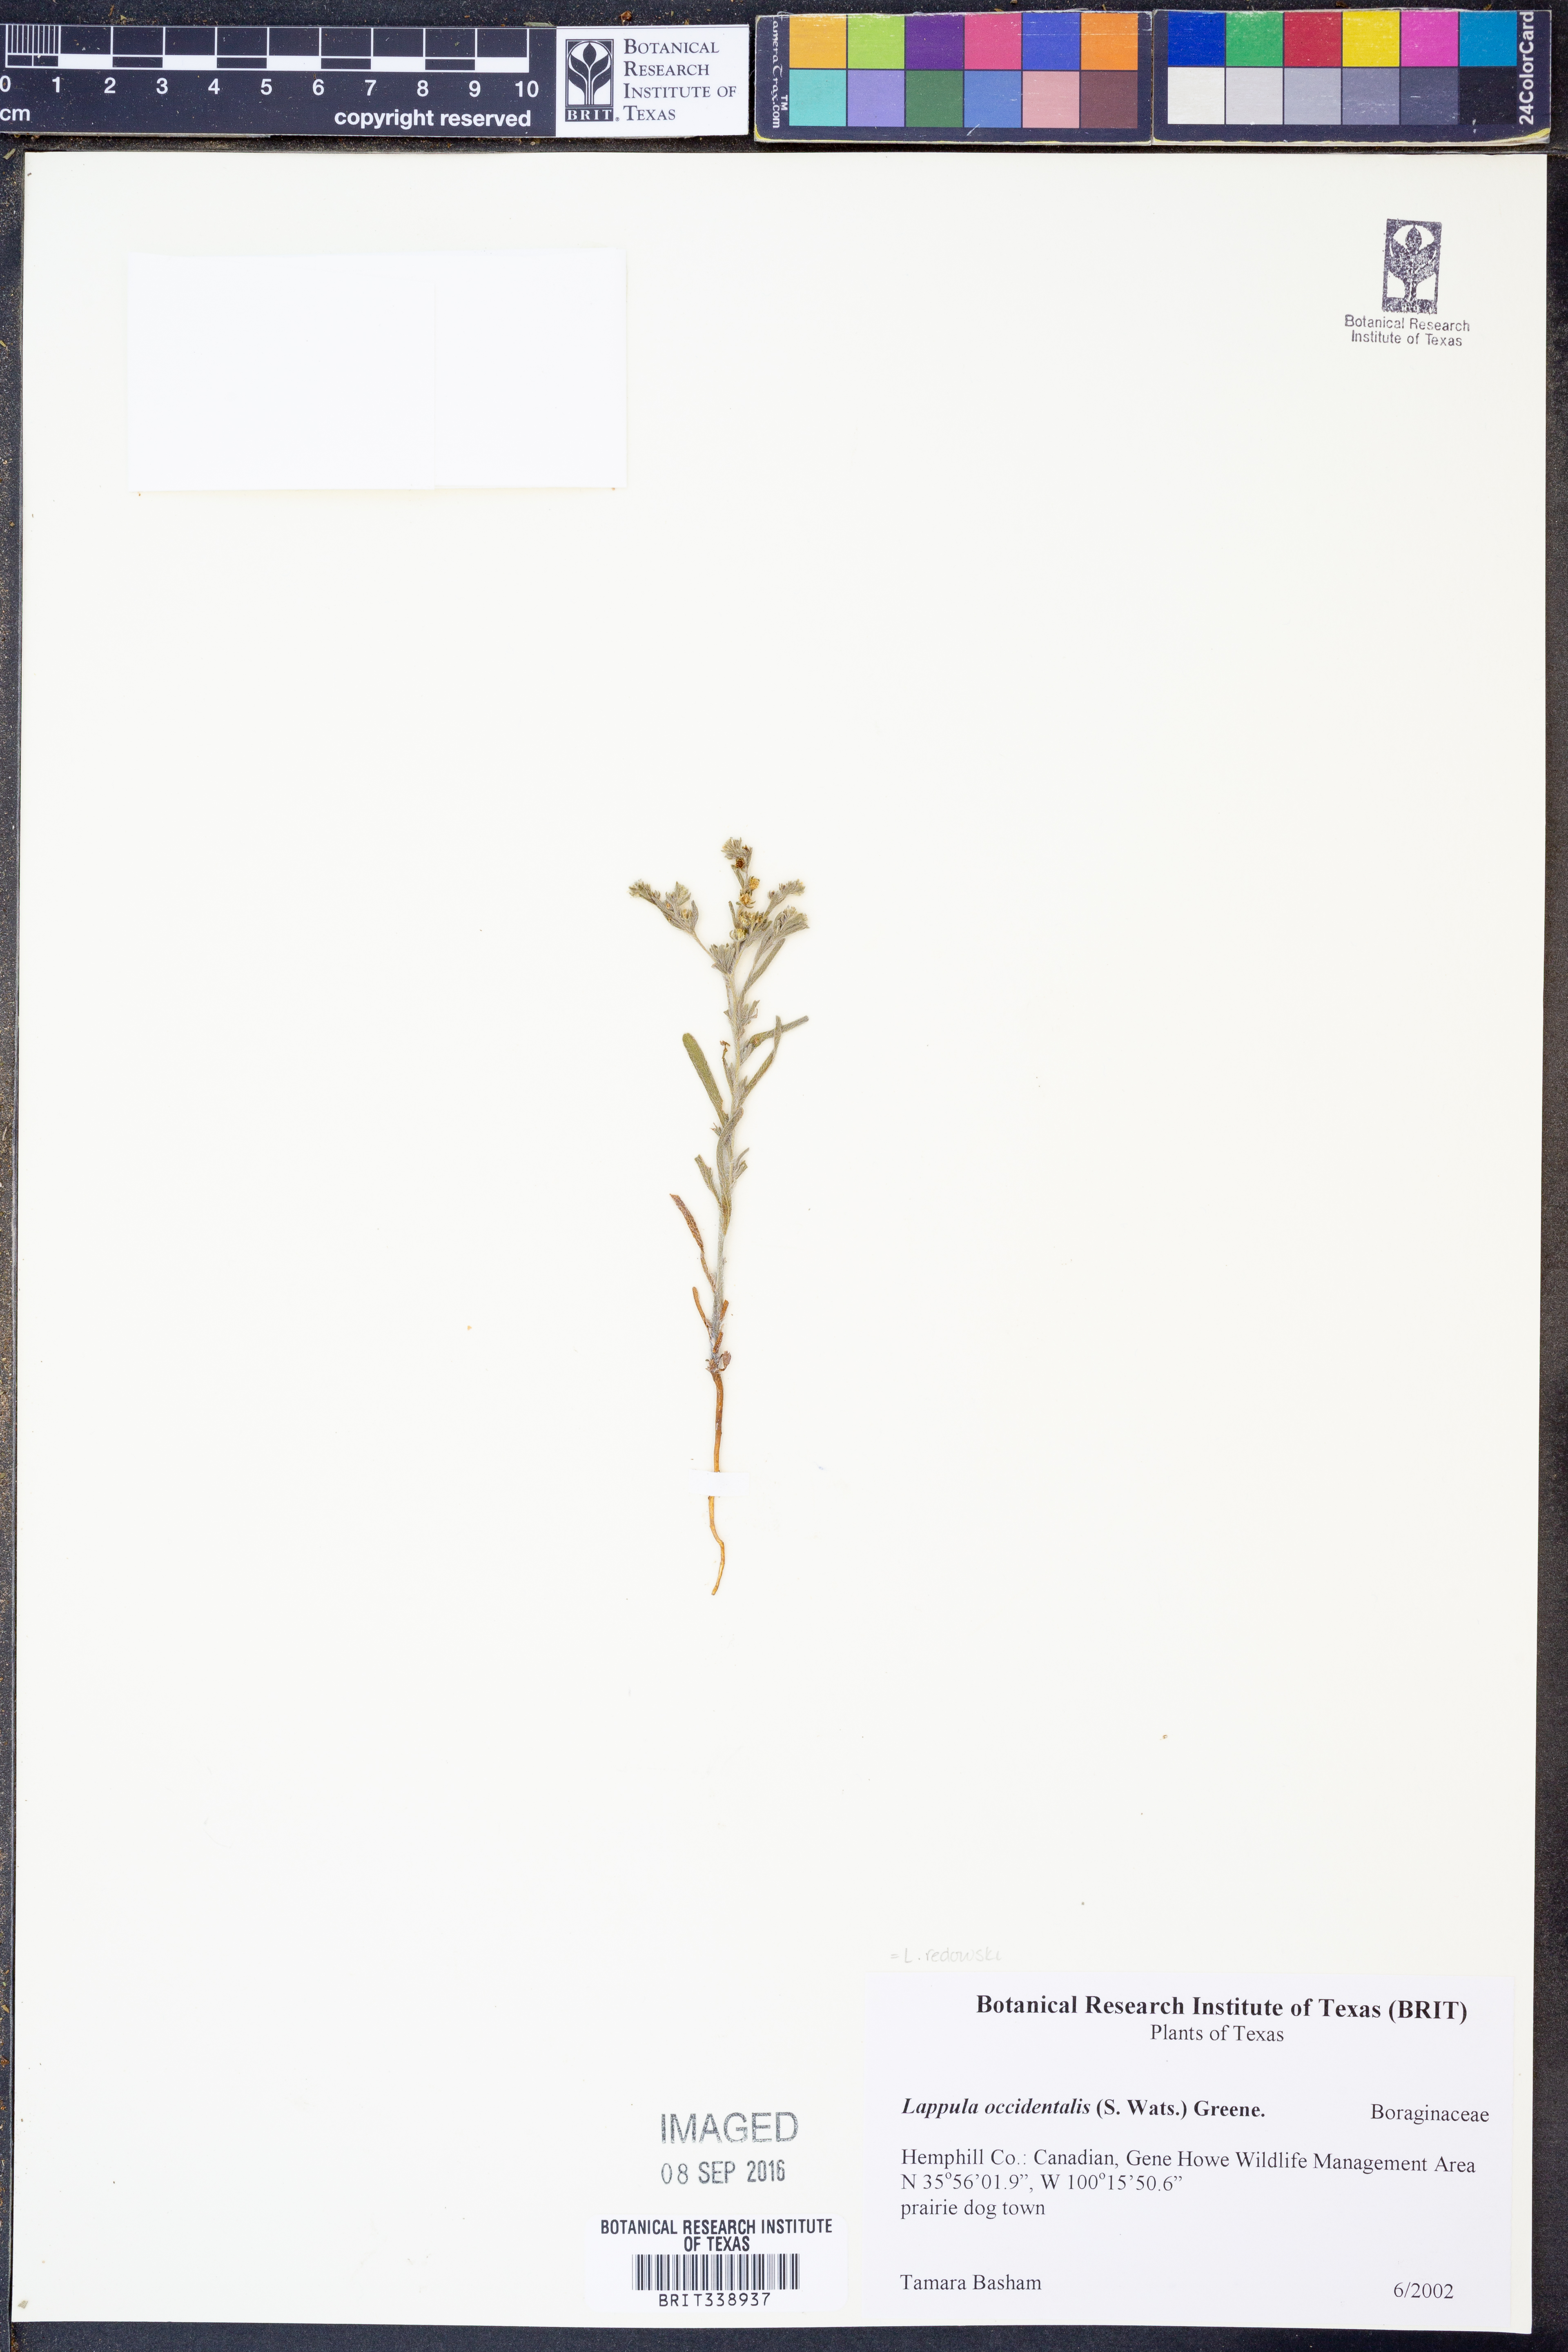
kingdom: Plantae
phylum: Tracheophyta
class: Magnoliopsida
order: Boraginales
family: Boraginaceae
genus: Lappula
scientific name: Lappula redowskii
